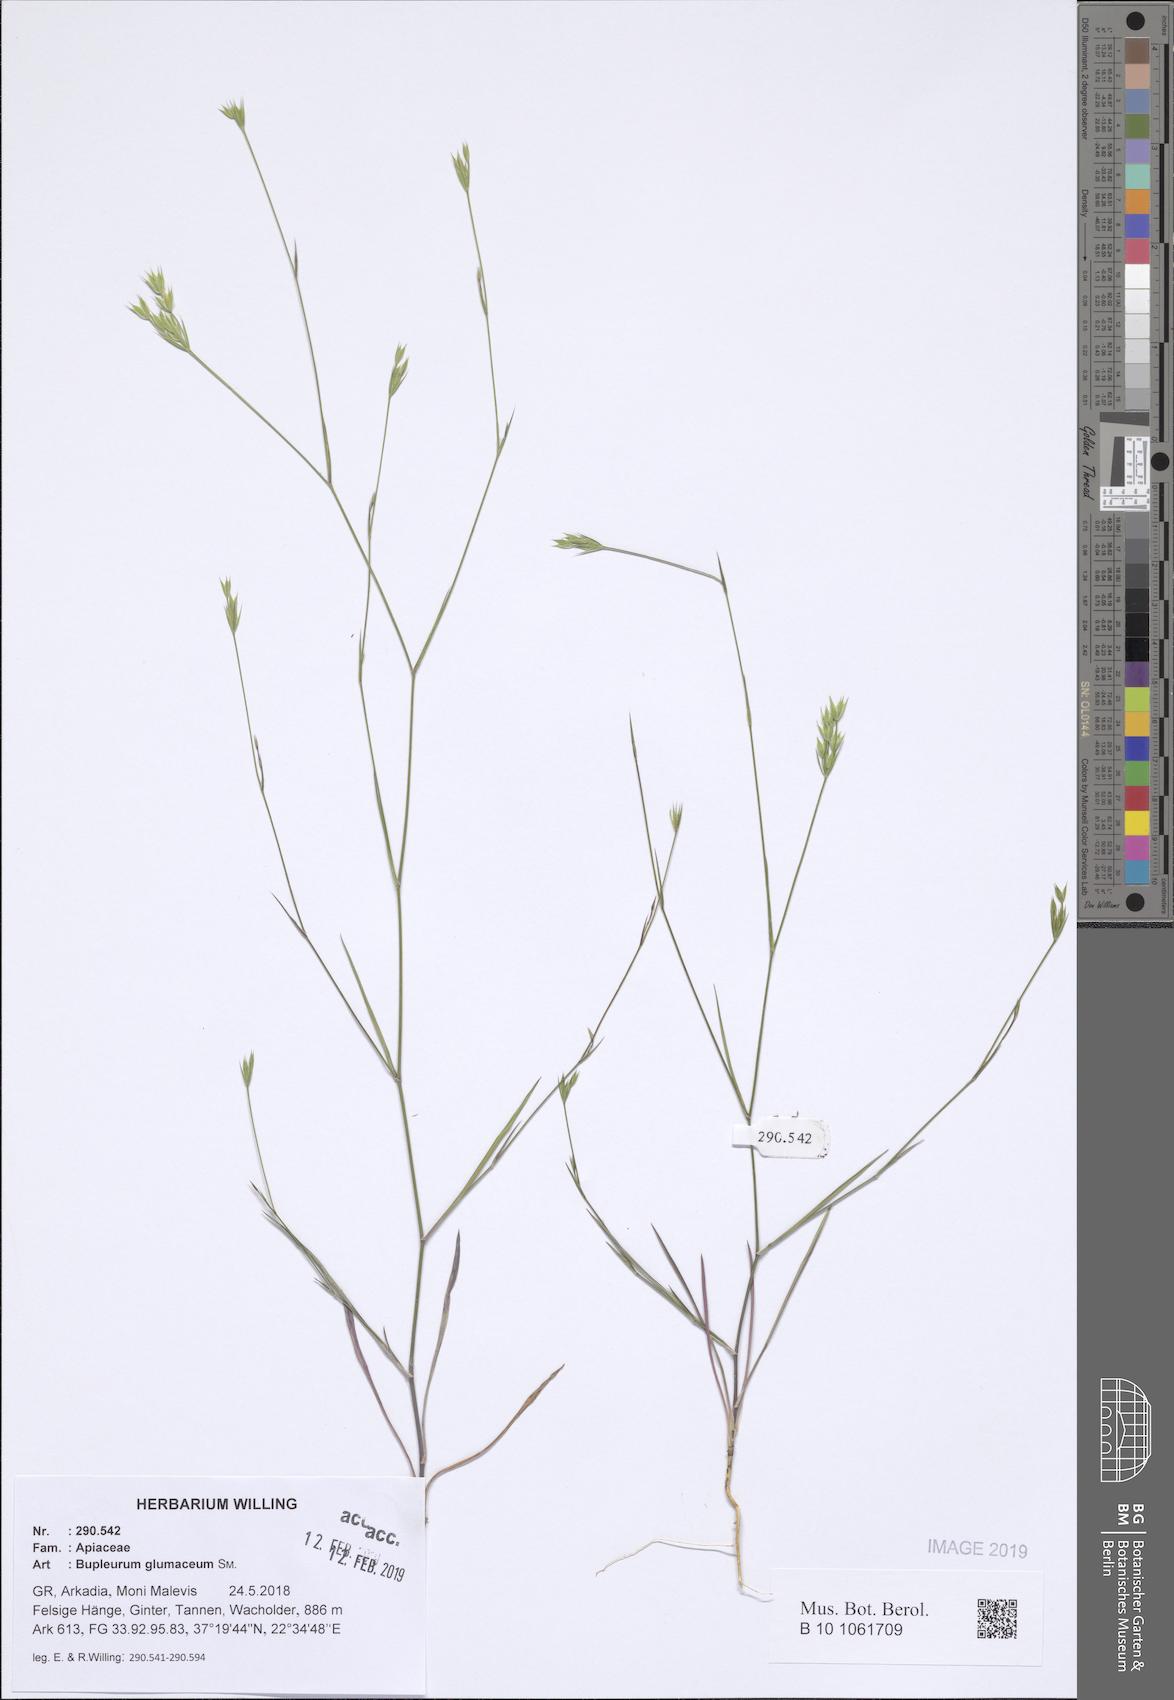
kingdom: Plantae
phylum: Tracheophyta
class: Magnoliopsida
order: Apiales
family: Apiaceae
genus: Bupleurum
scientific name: Bupleurum glumaceum
